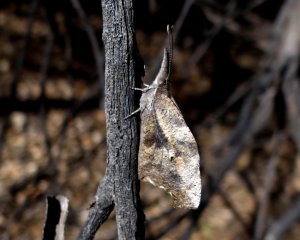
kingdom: Animalia
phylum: Arthropoda
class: Insecta
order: Lepidoptera
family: Nymphalidae
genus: Libytheana
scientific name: Libytheana carinenta
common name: American Snout
